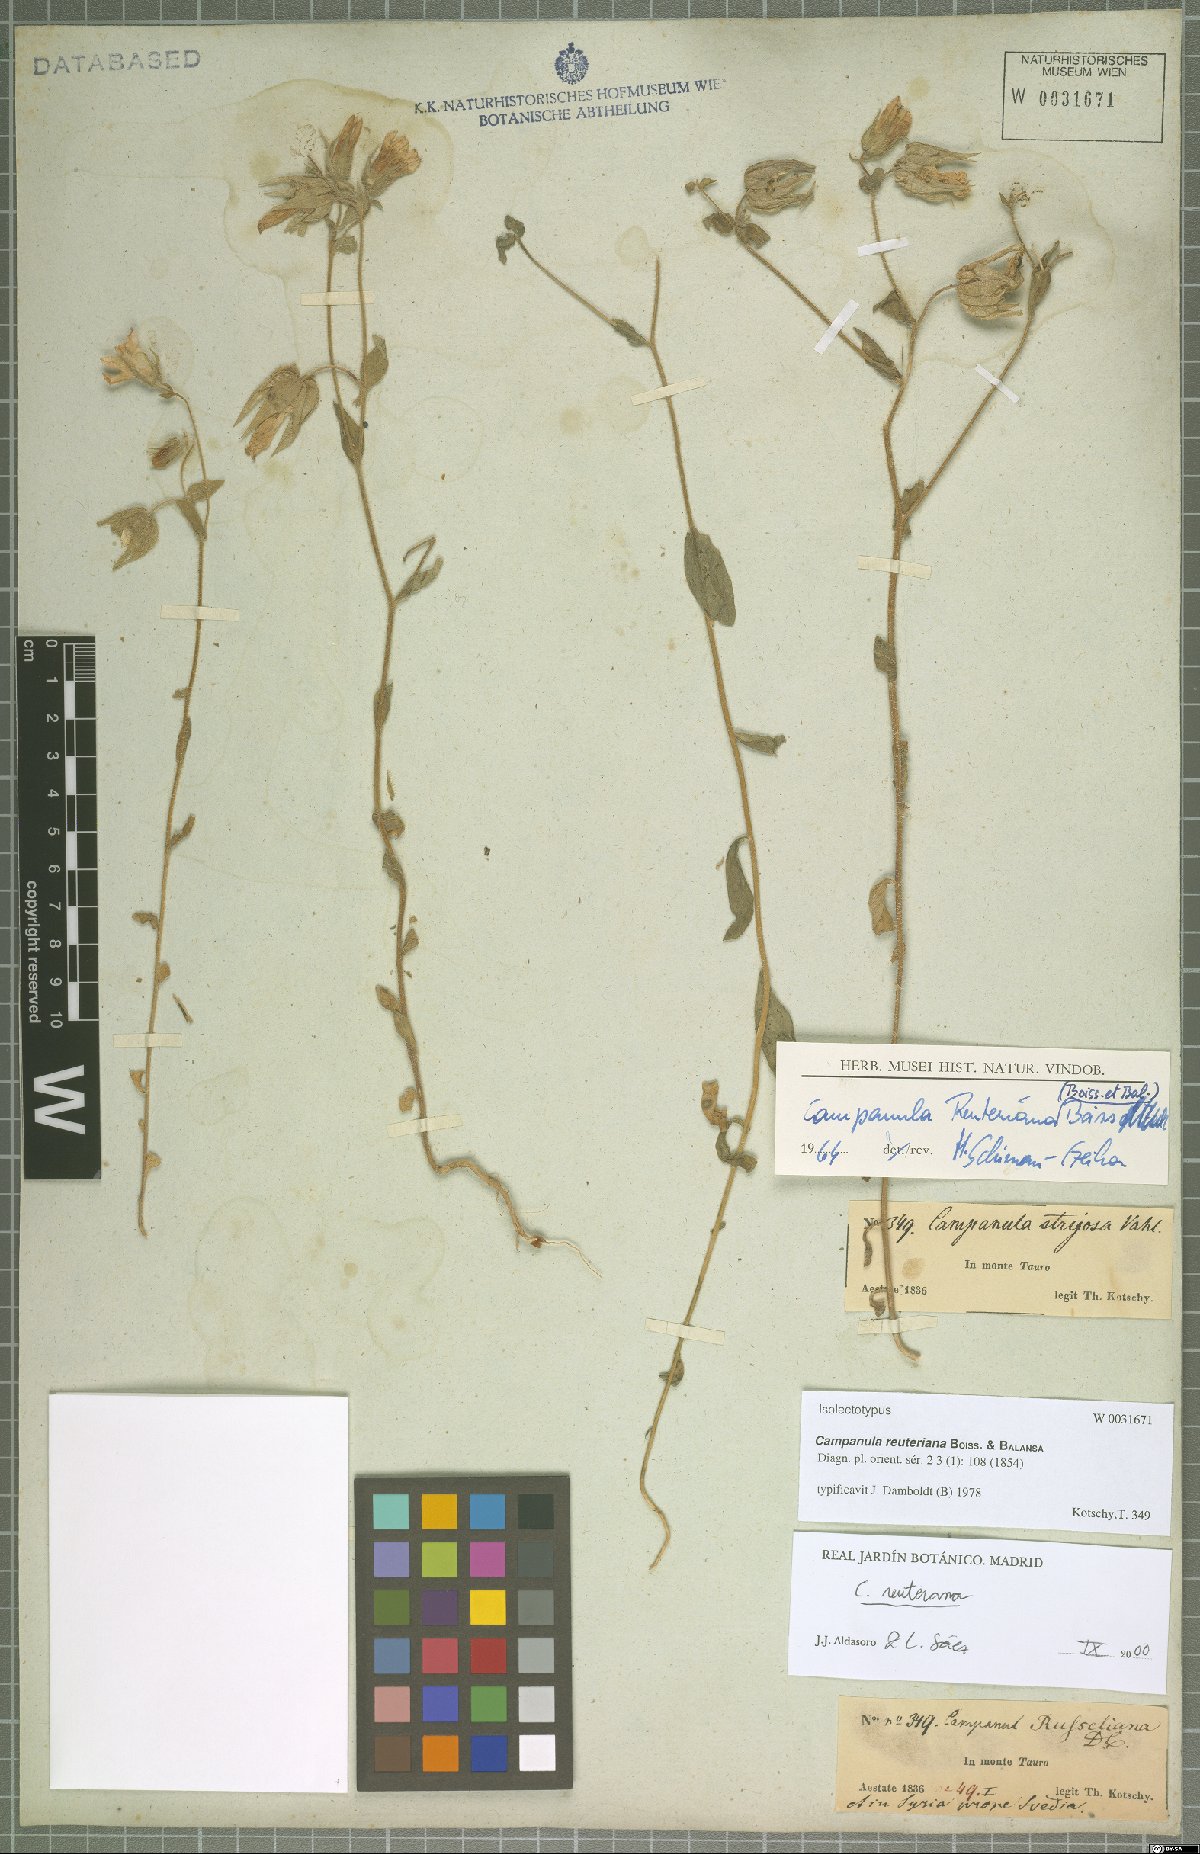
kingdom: Plantae
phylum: Tracheophyta
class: Magnoliopsida
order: Asterales
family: Campanulaceae
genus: Campanula
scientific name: Campanula reuteriana
